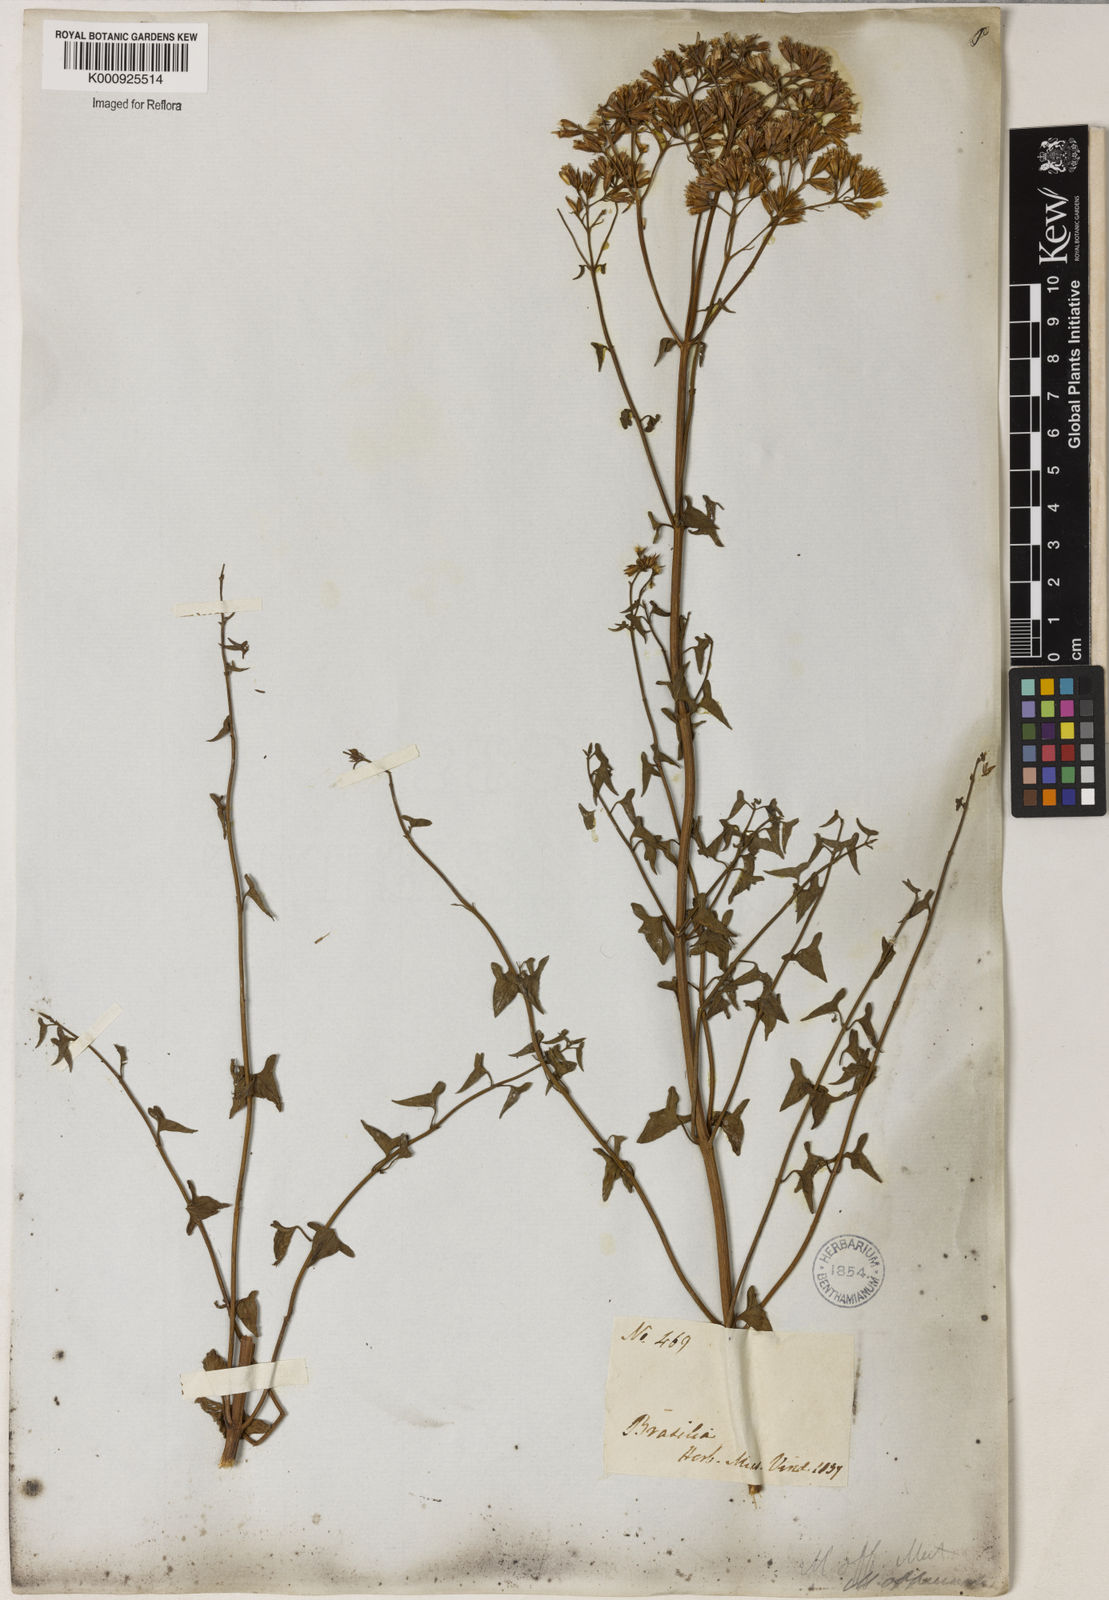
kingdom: Plantae
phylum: Tracheophyta
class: Magnoliopsida
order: Asterales
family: Asteraceae
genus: Mikania
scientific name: Mikania officinalis
